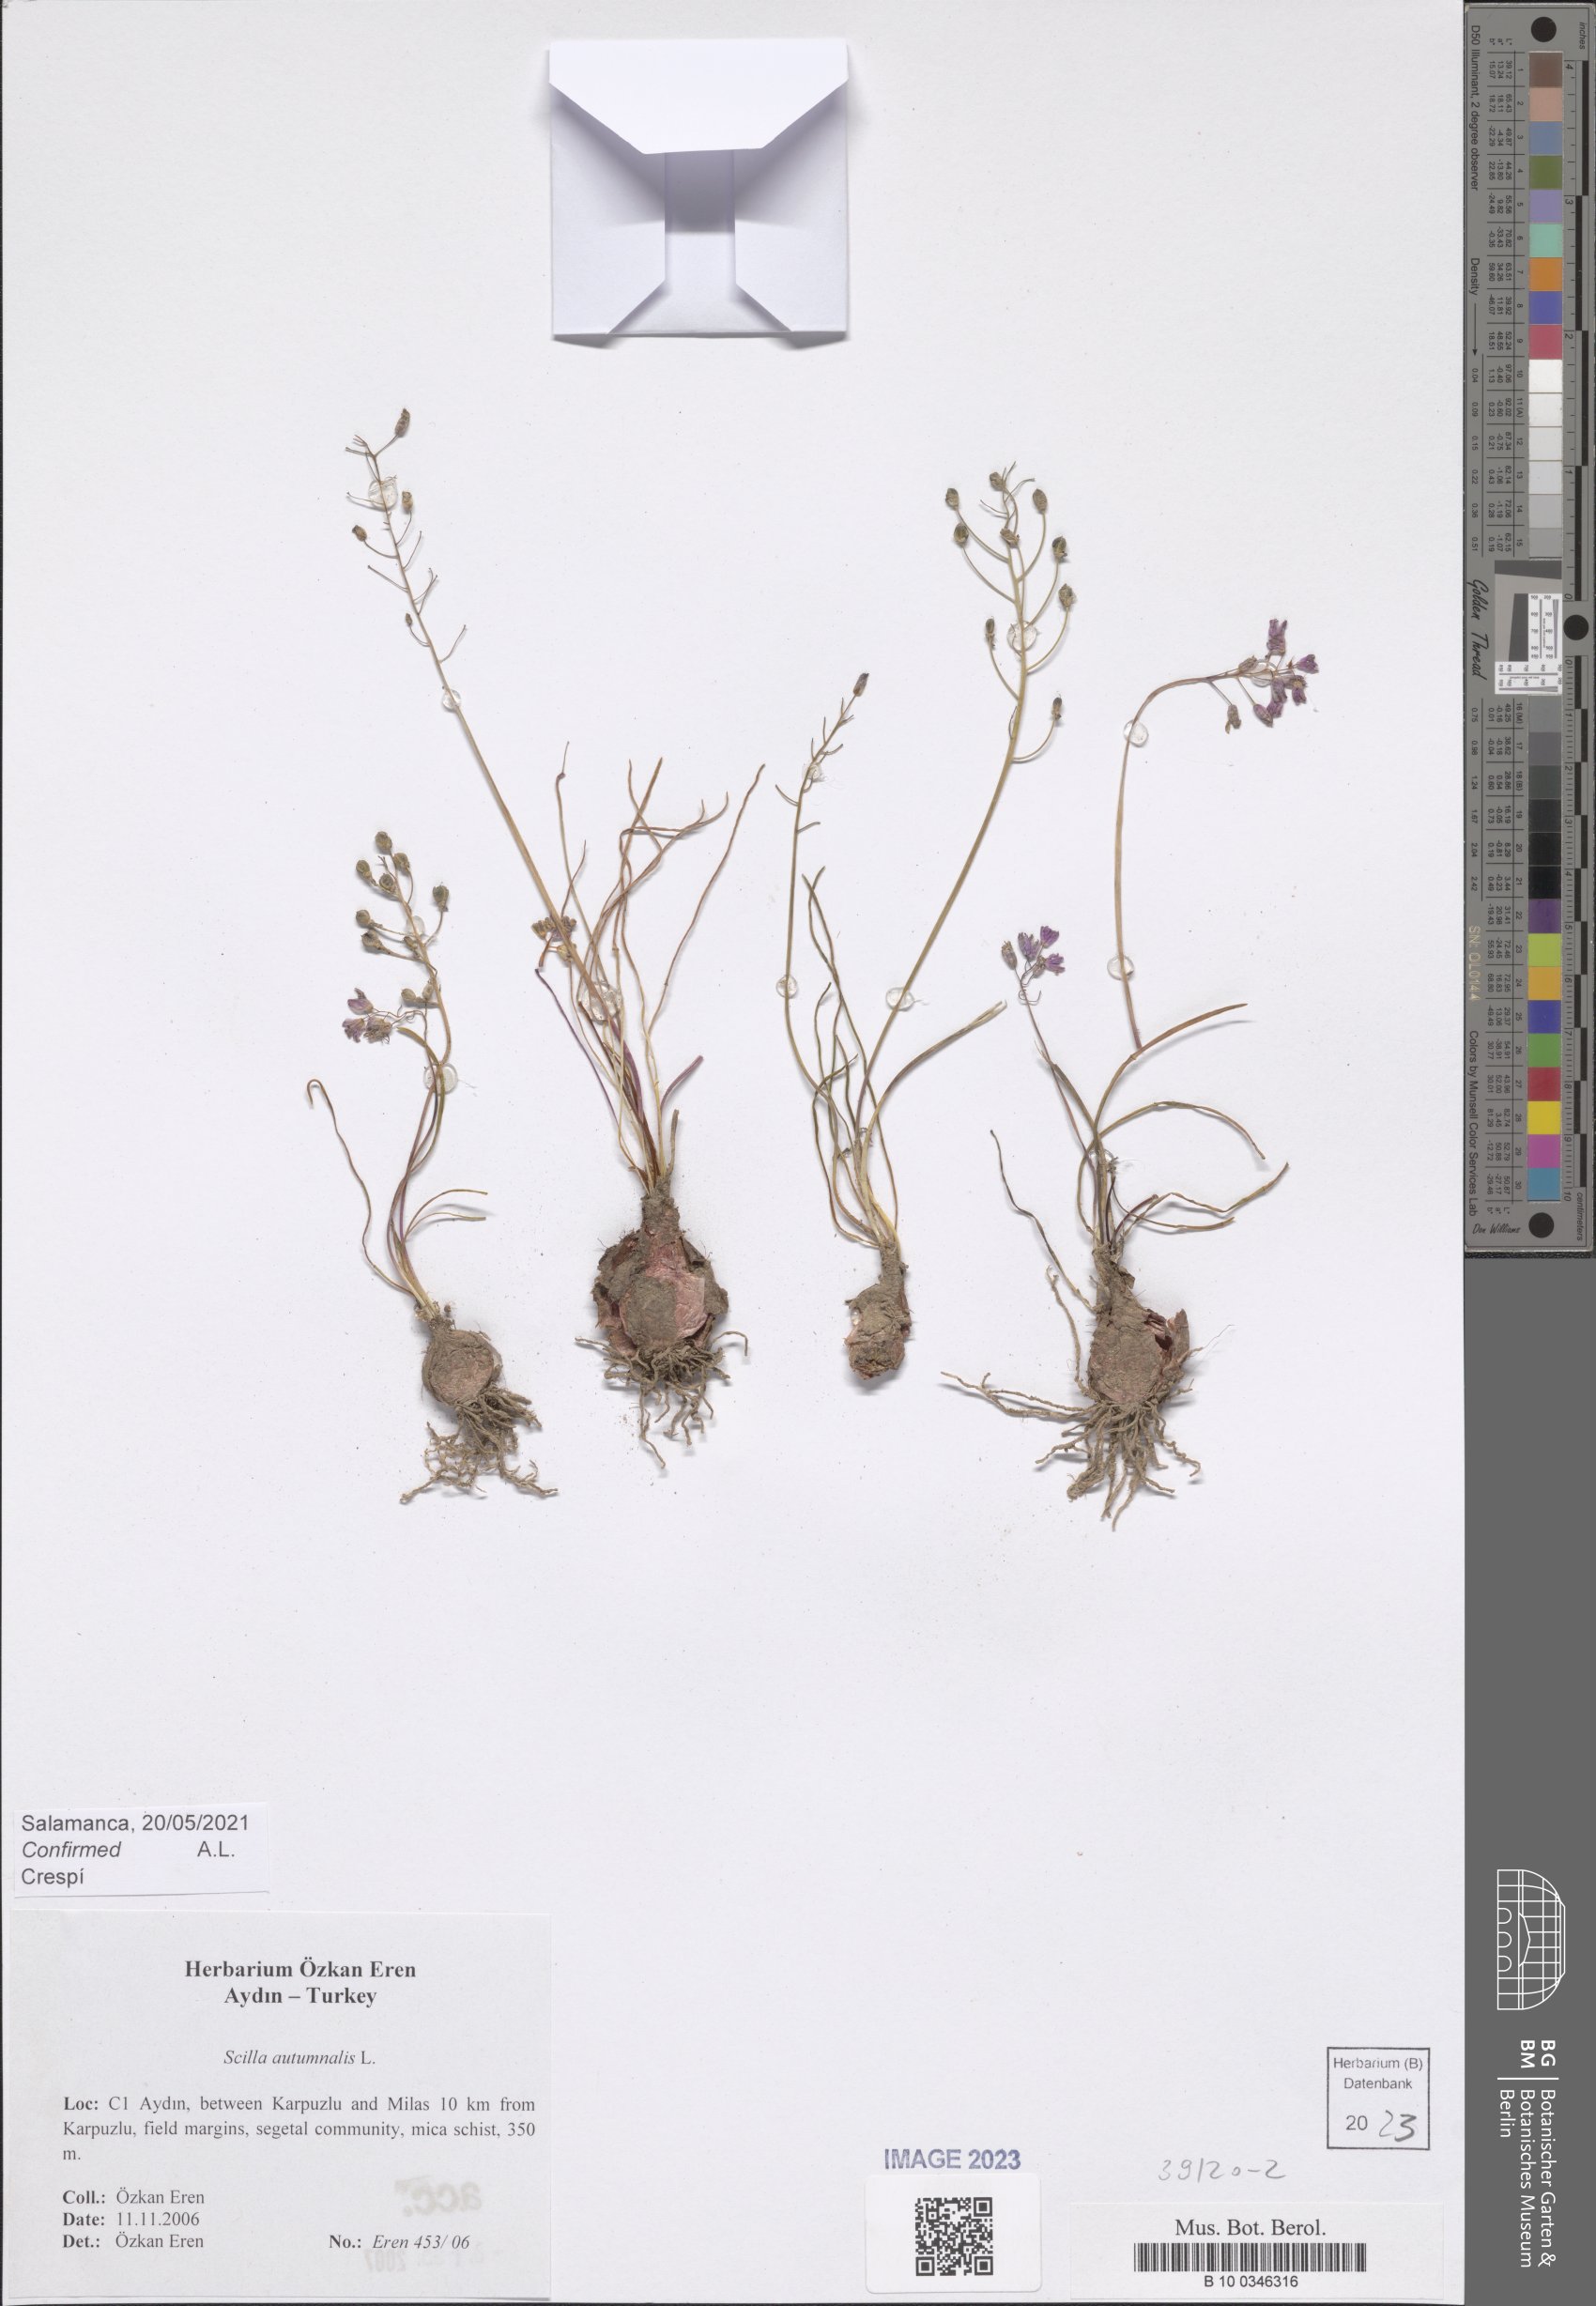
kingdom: Plantae
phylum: Tracheophyta
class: Liliopsida
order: Asparagales
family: Asparagaceae
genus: Prospero
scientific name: Prospero autumnale
